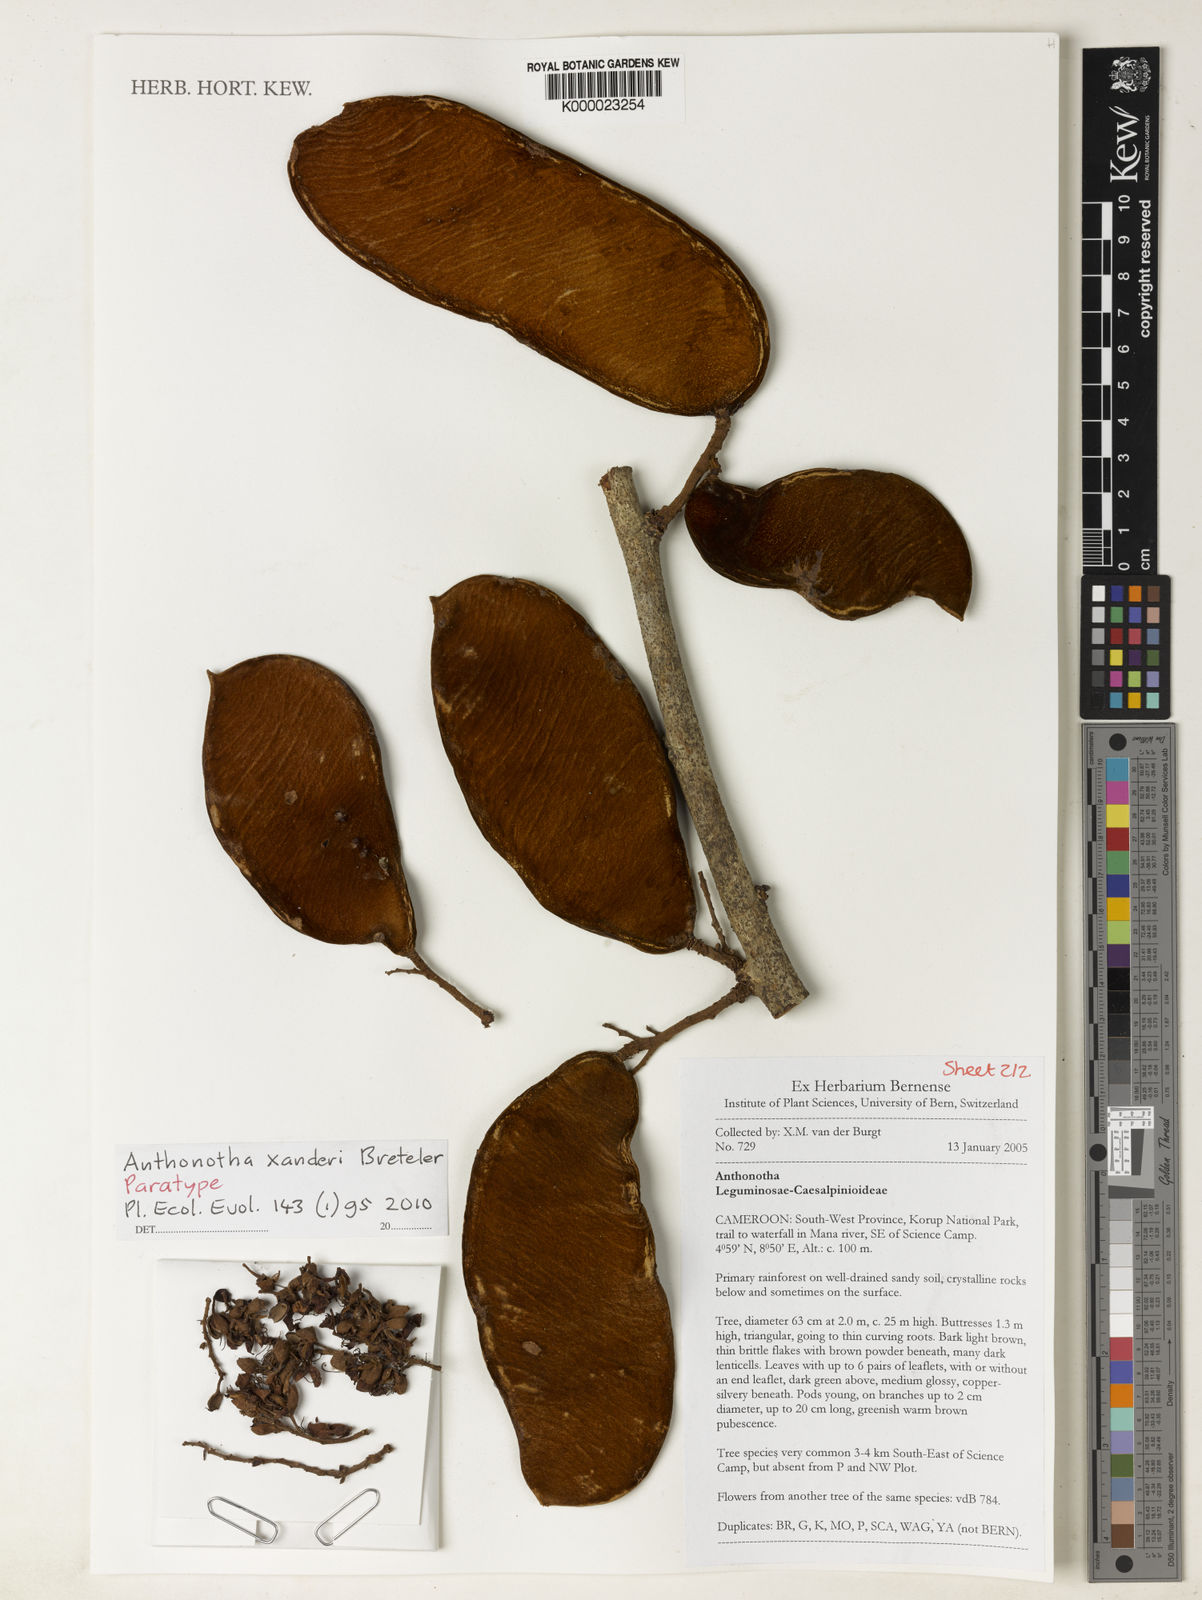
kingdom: Plantae
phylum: Tracheophyta
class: Magnoliopsida
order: Fabales
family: Fabaceae
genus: Anthonotha
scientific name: Anthonotha xanderi
